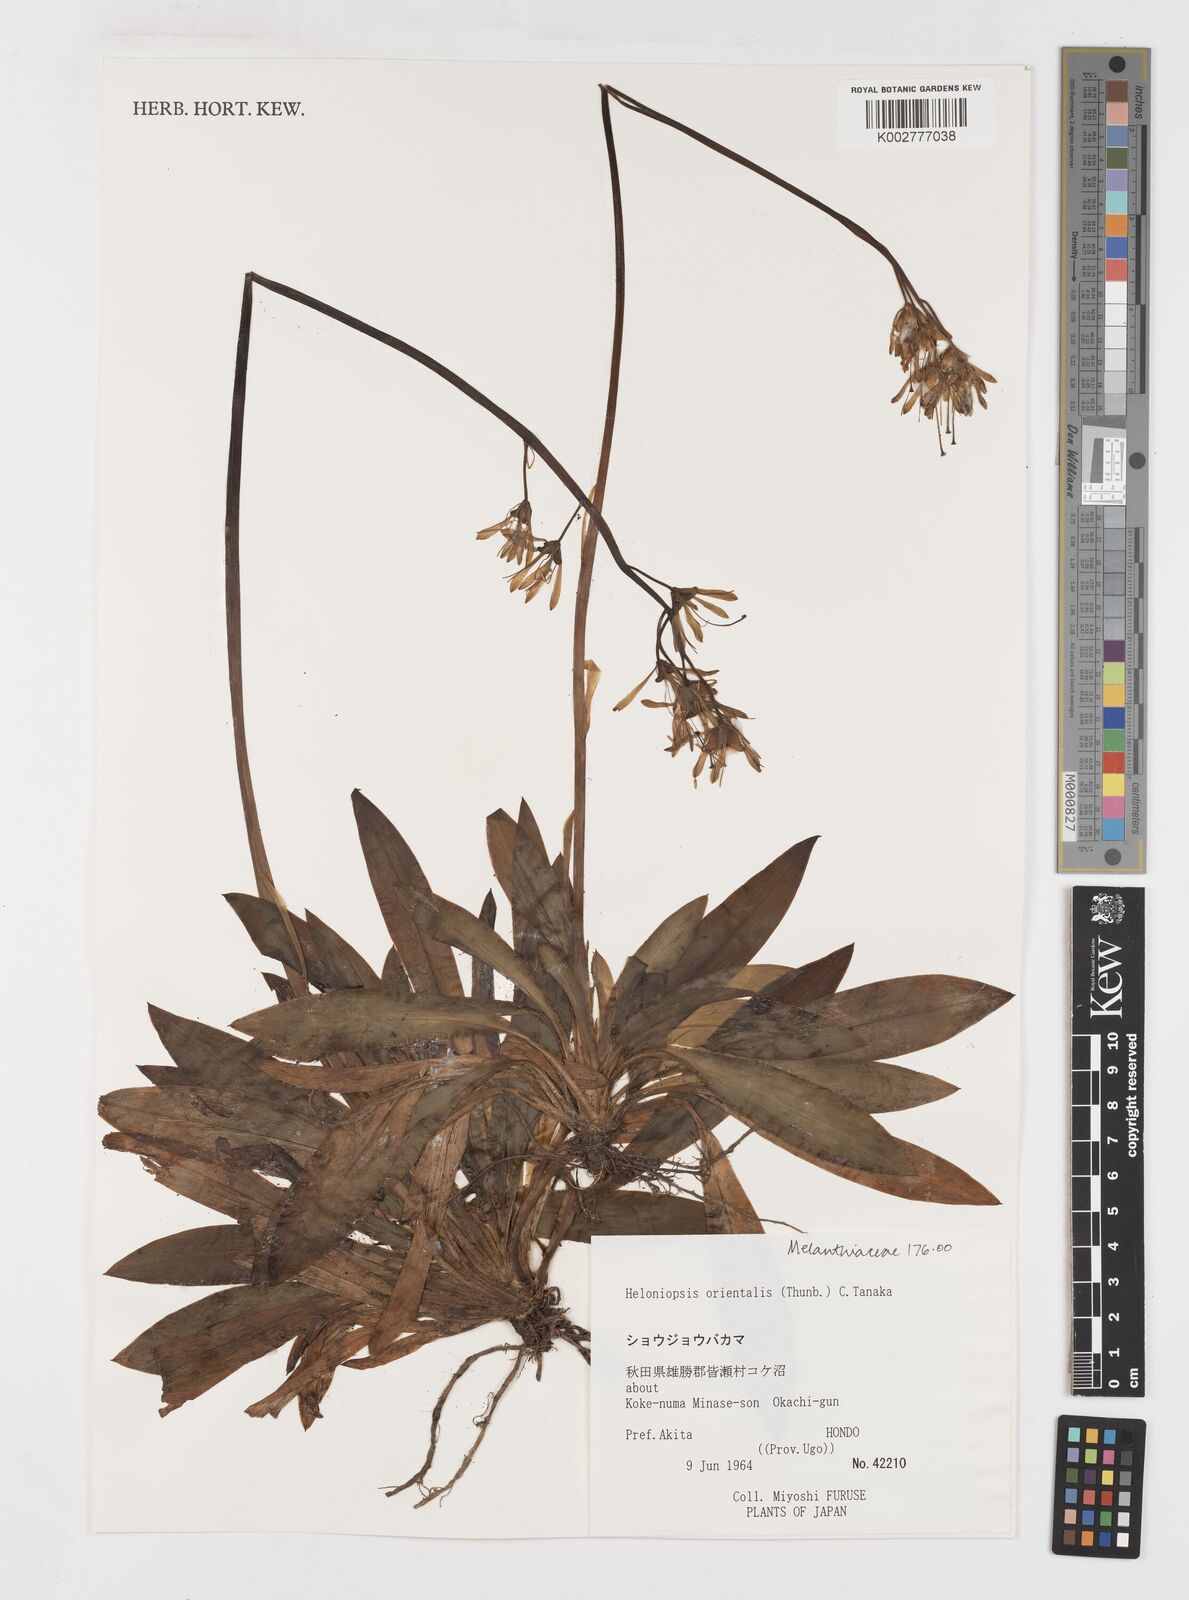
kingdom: Plantae
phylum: Tracheophyta
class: Liliopsida
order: Liliales
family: Melanthiaceae
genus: Helonias
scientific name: Helonias orientalis
